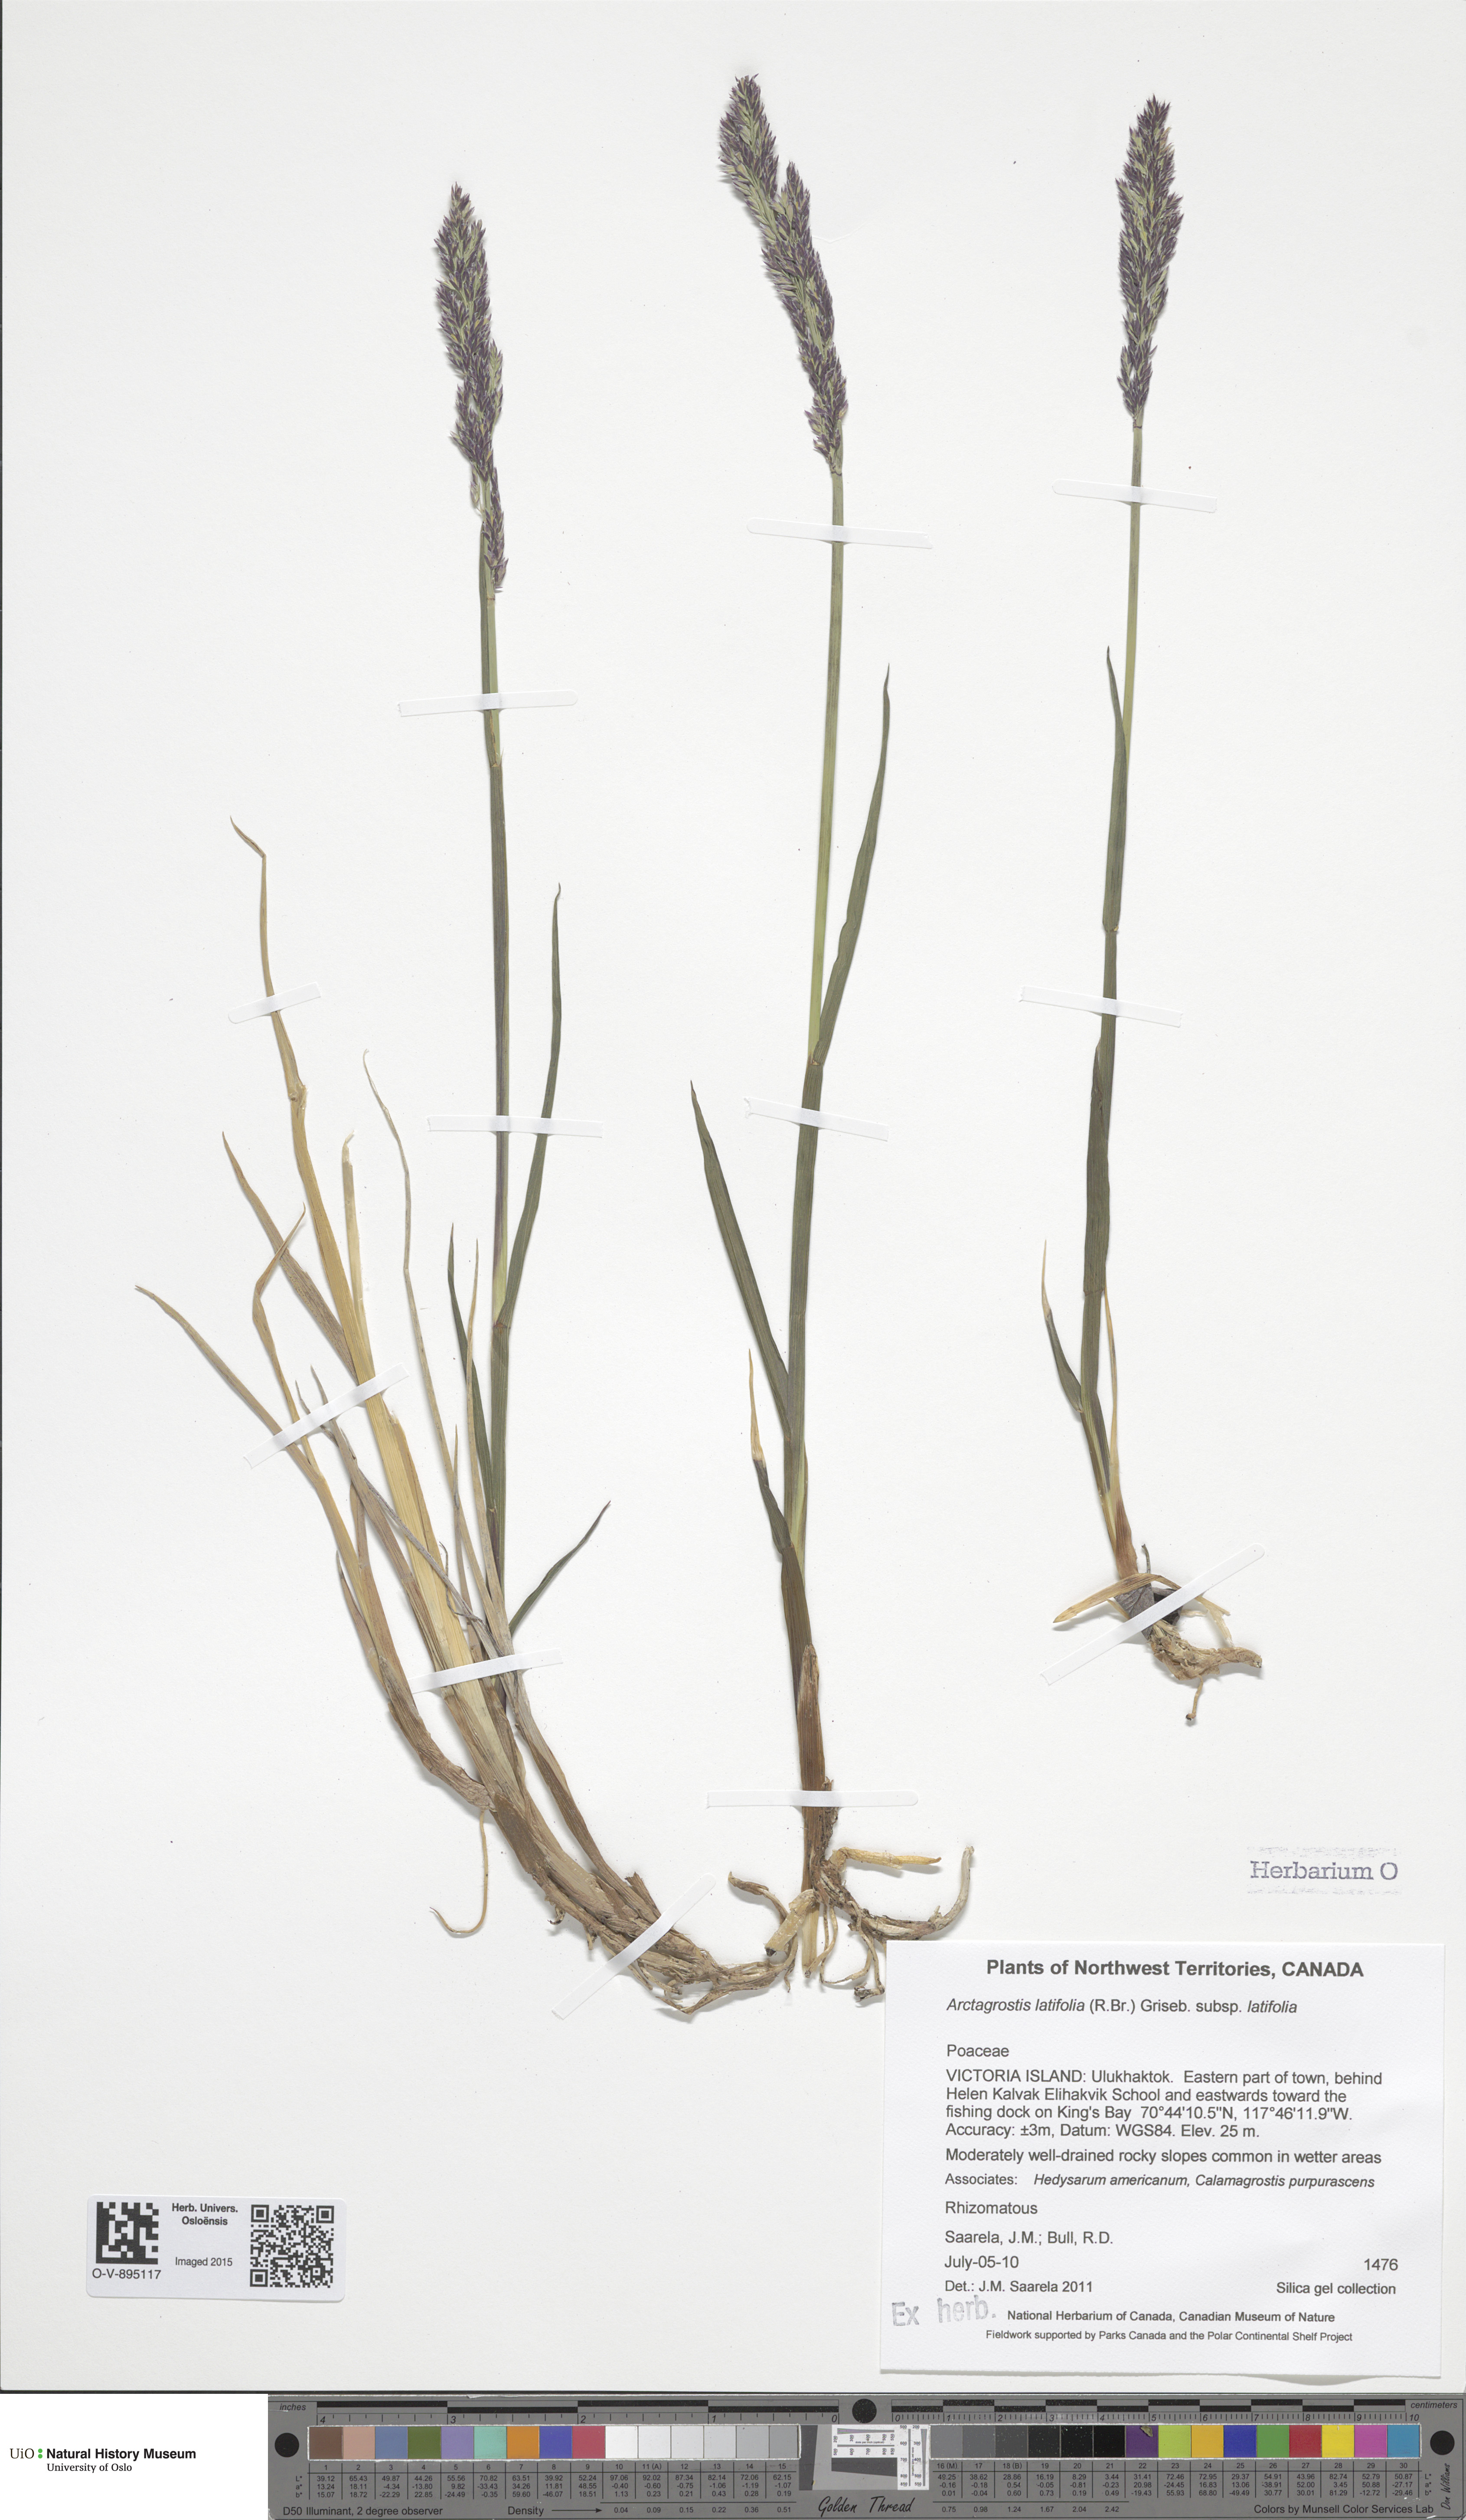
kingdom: Plantae
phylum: Tracheophyta
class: Liliopsida
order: Poales
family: Poaceae
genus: Arctagrostis
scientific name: Arctagrostis latifolia
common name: Arctic grass
